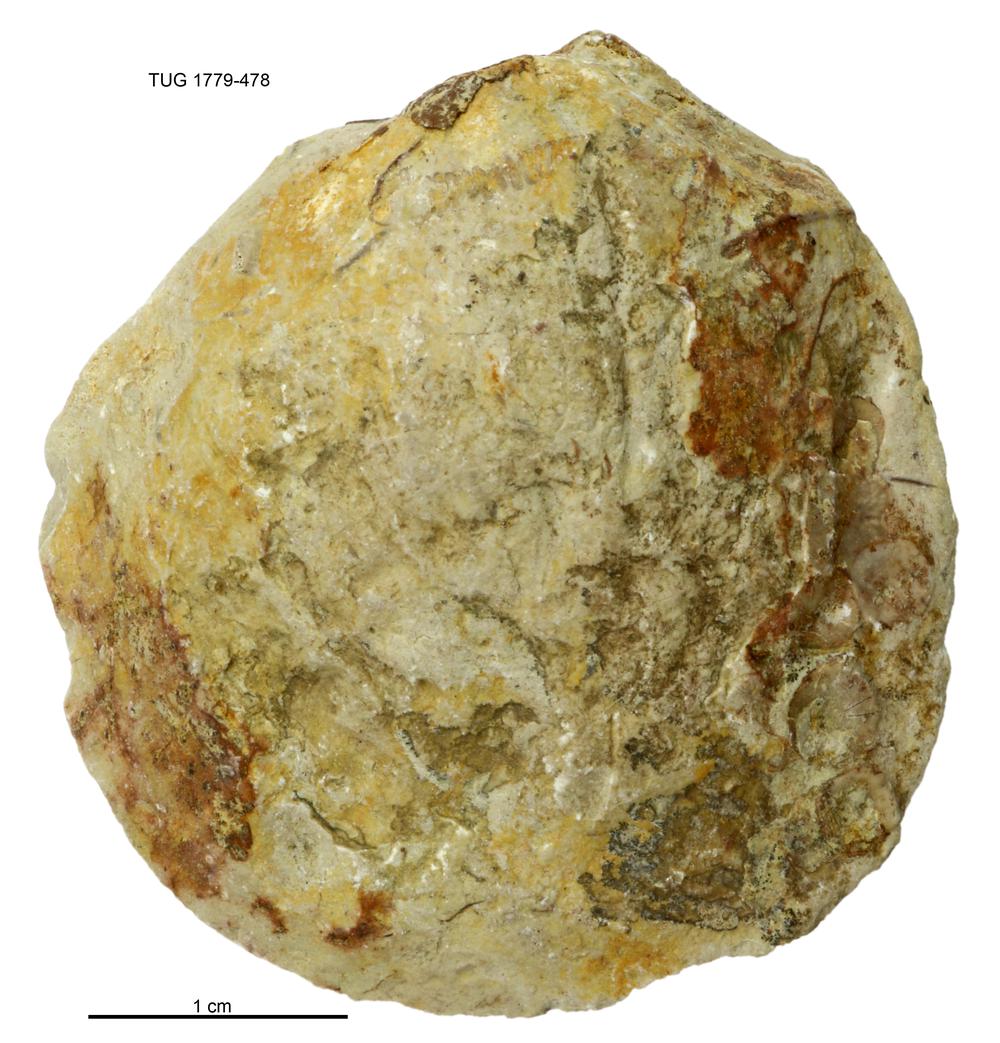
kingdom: Animalia
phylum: Mollusca
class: Bivalvia
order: Modiomorphida
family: Modiomorphidae
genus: Modiolopsis
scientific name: Modiolopsis
